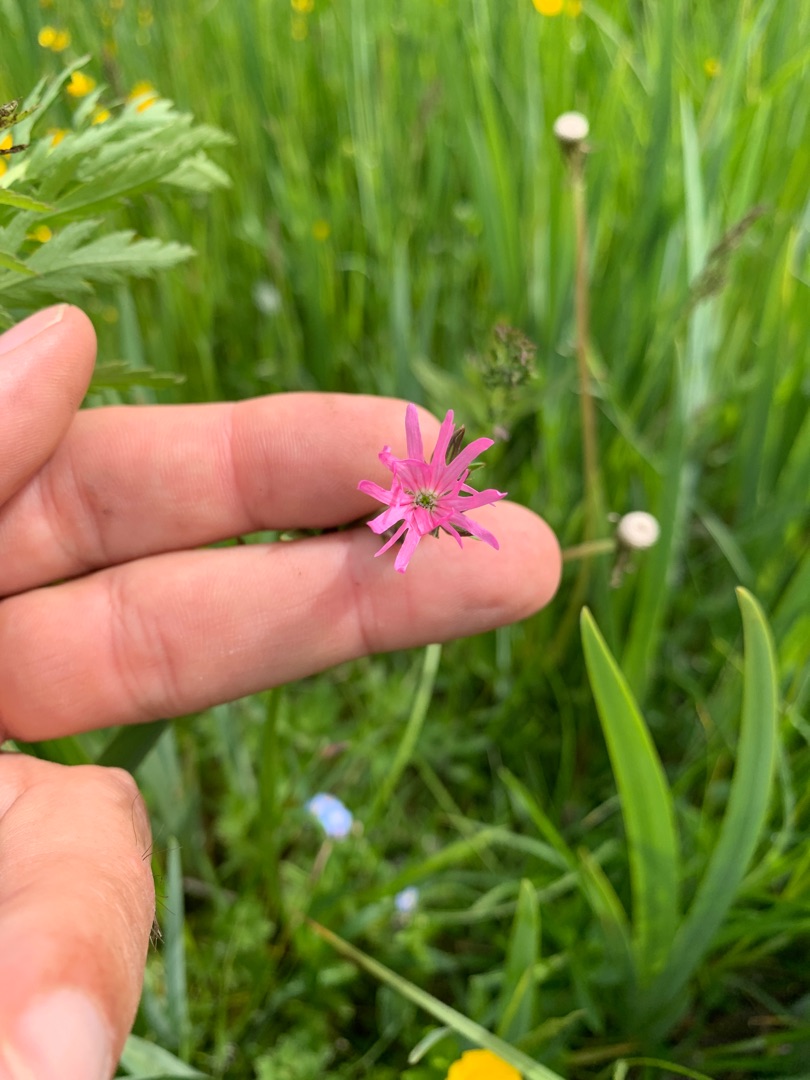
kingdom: Plantae
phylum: Tracheophyta
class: Magnoliopsida
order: Caryophyllales
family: Caryophyllaceae
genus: Silene
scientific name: Silene flos-cuculi
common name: Trævlekrone
